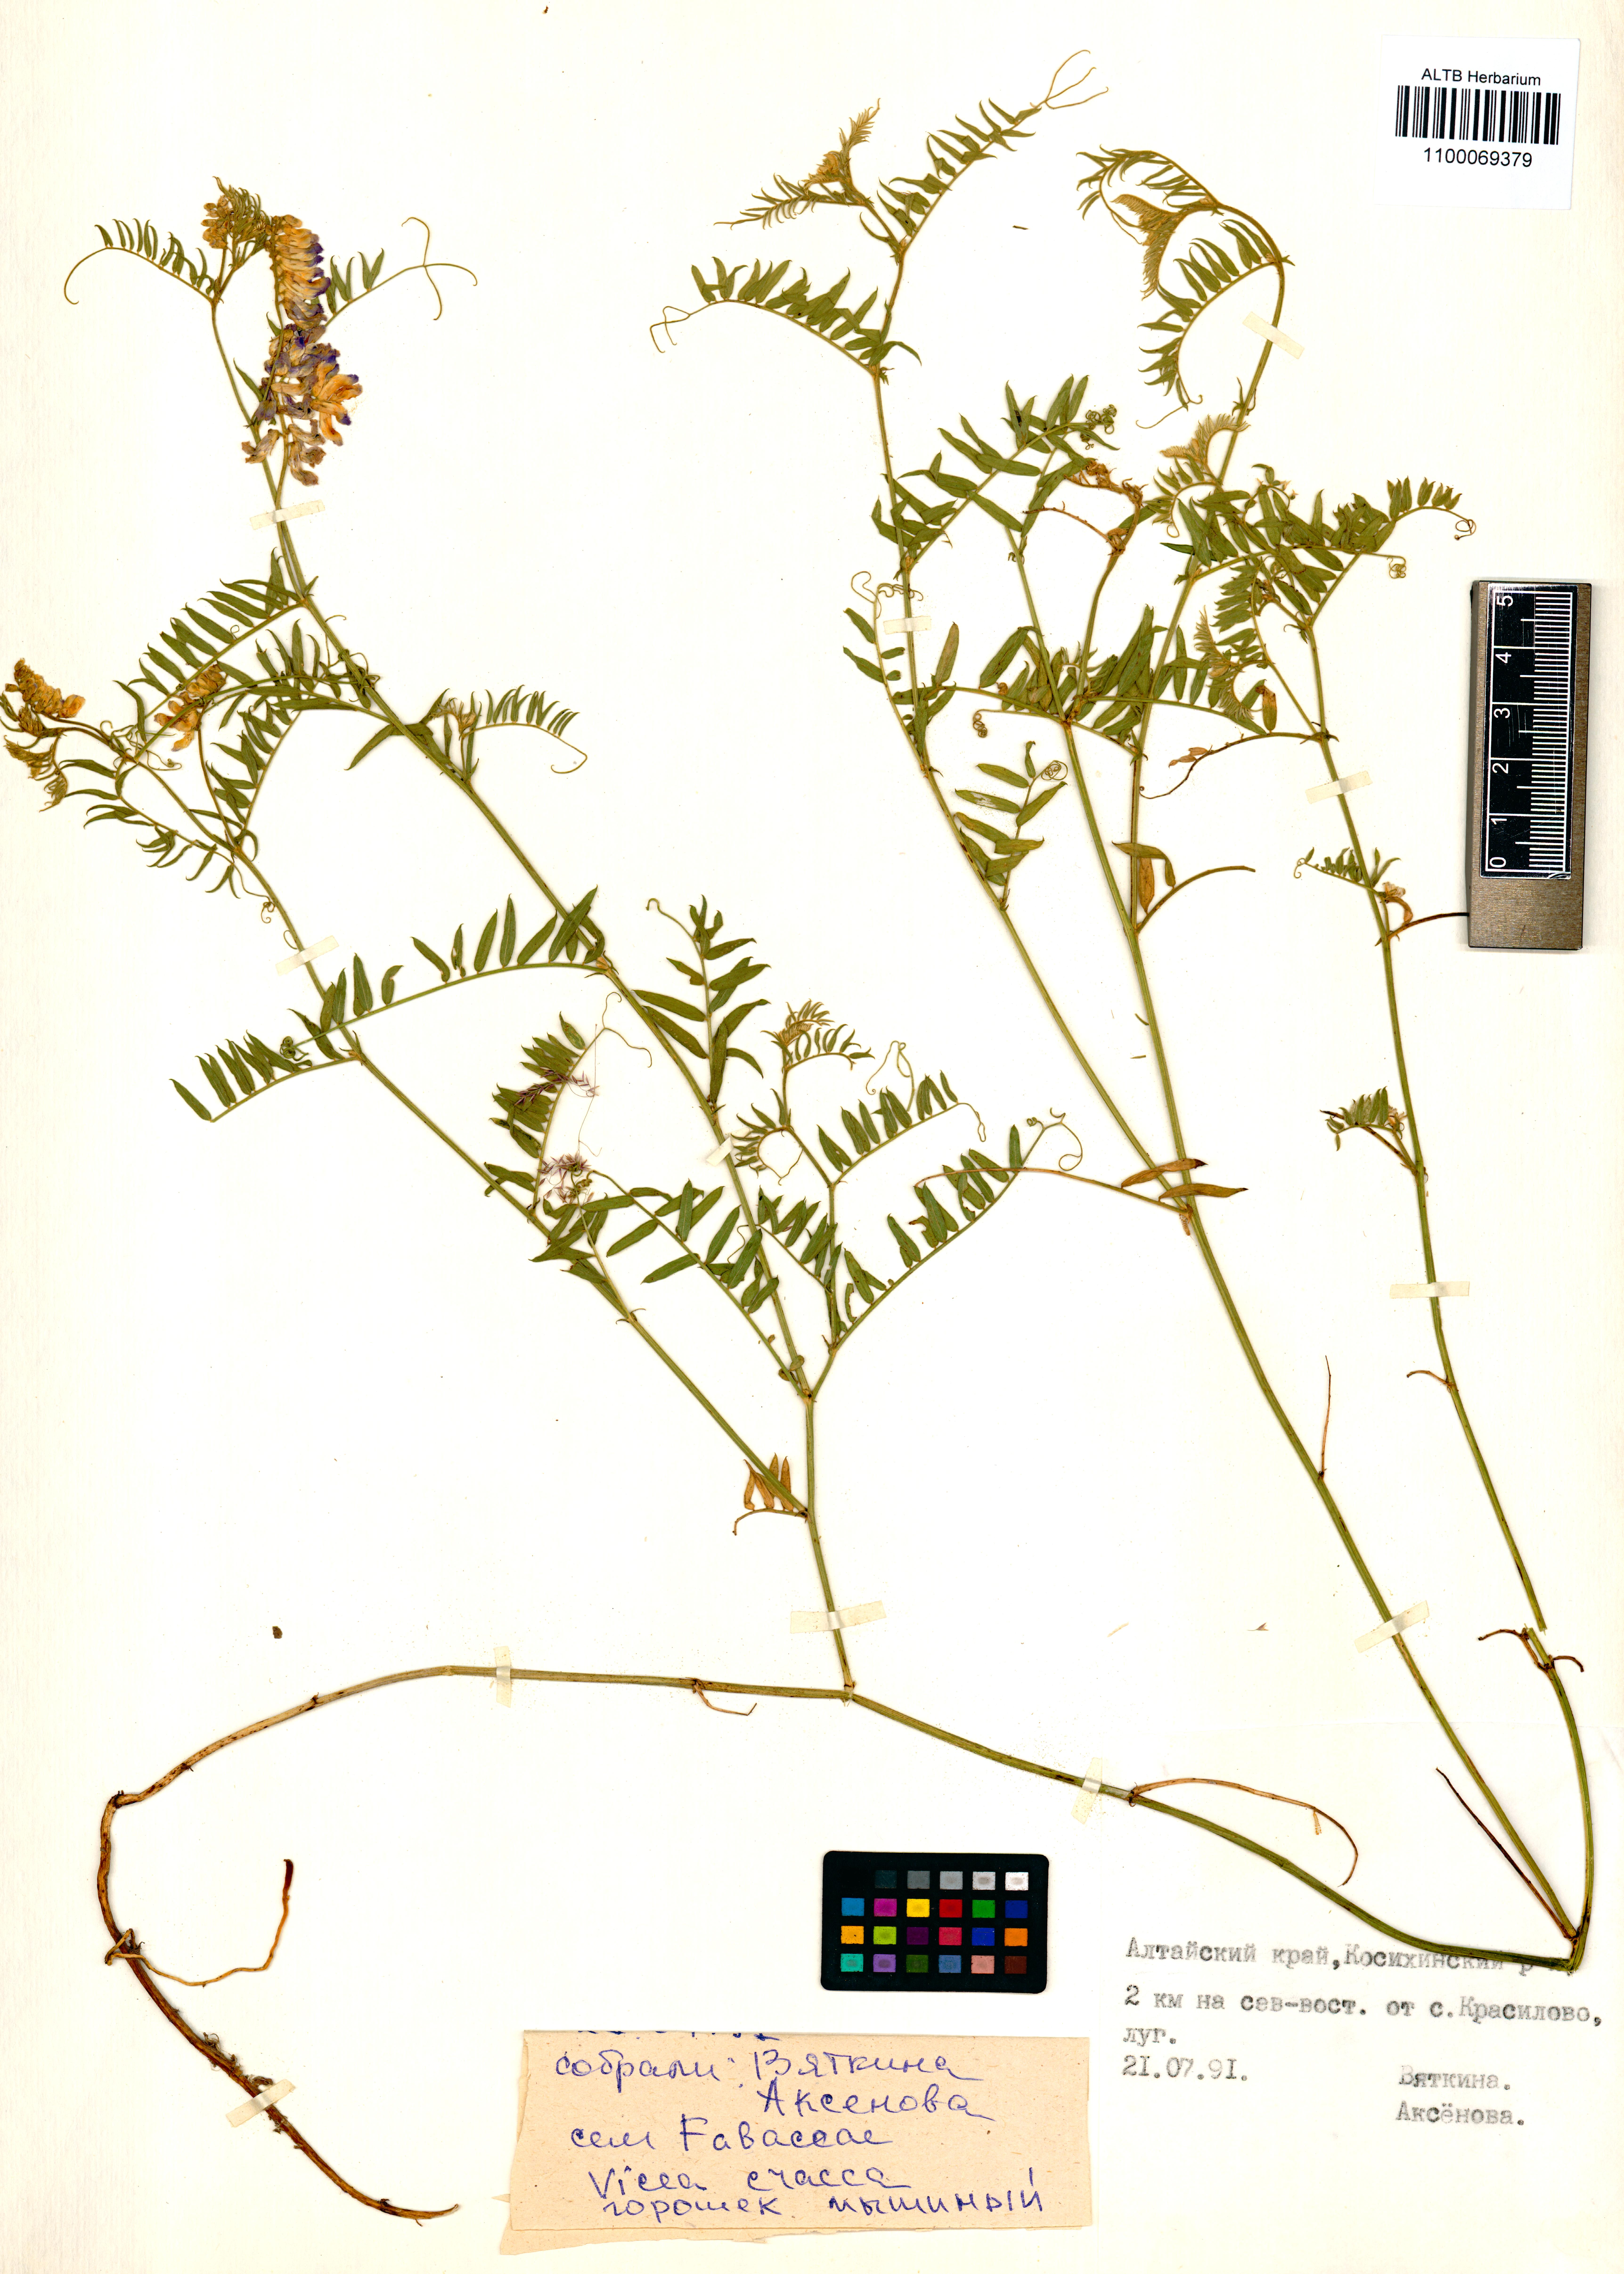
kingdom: Plantae
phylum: Tracheophyta
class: Magnoliopsida
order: Fabales
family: Fabaceae
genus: Vicia
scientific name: Vicia cracca
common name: Bird vetch
